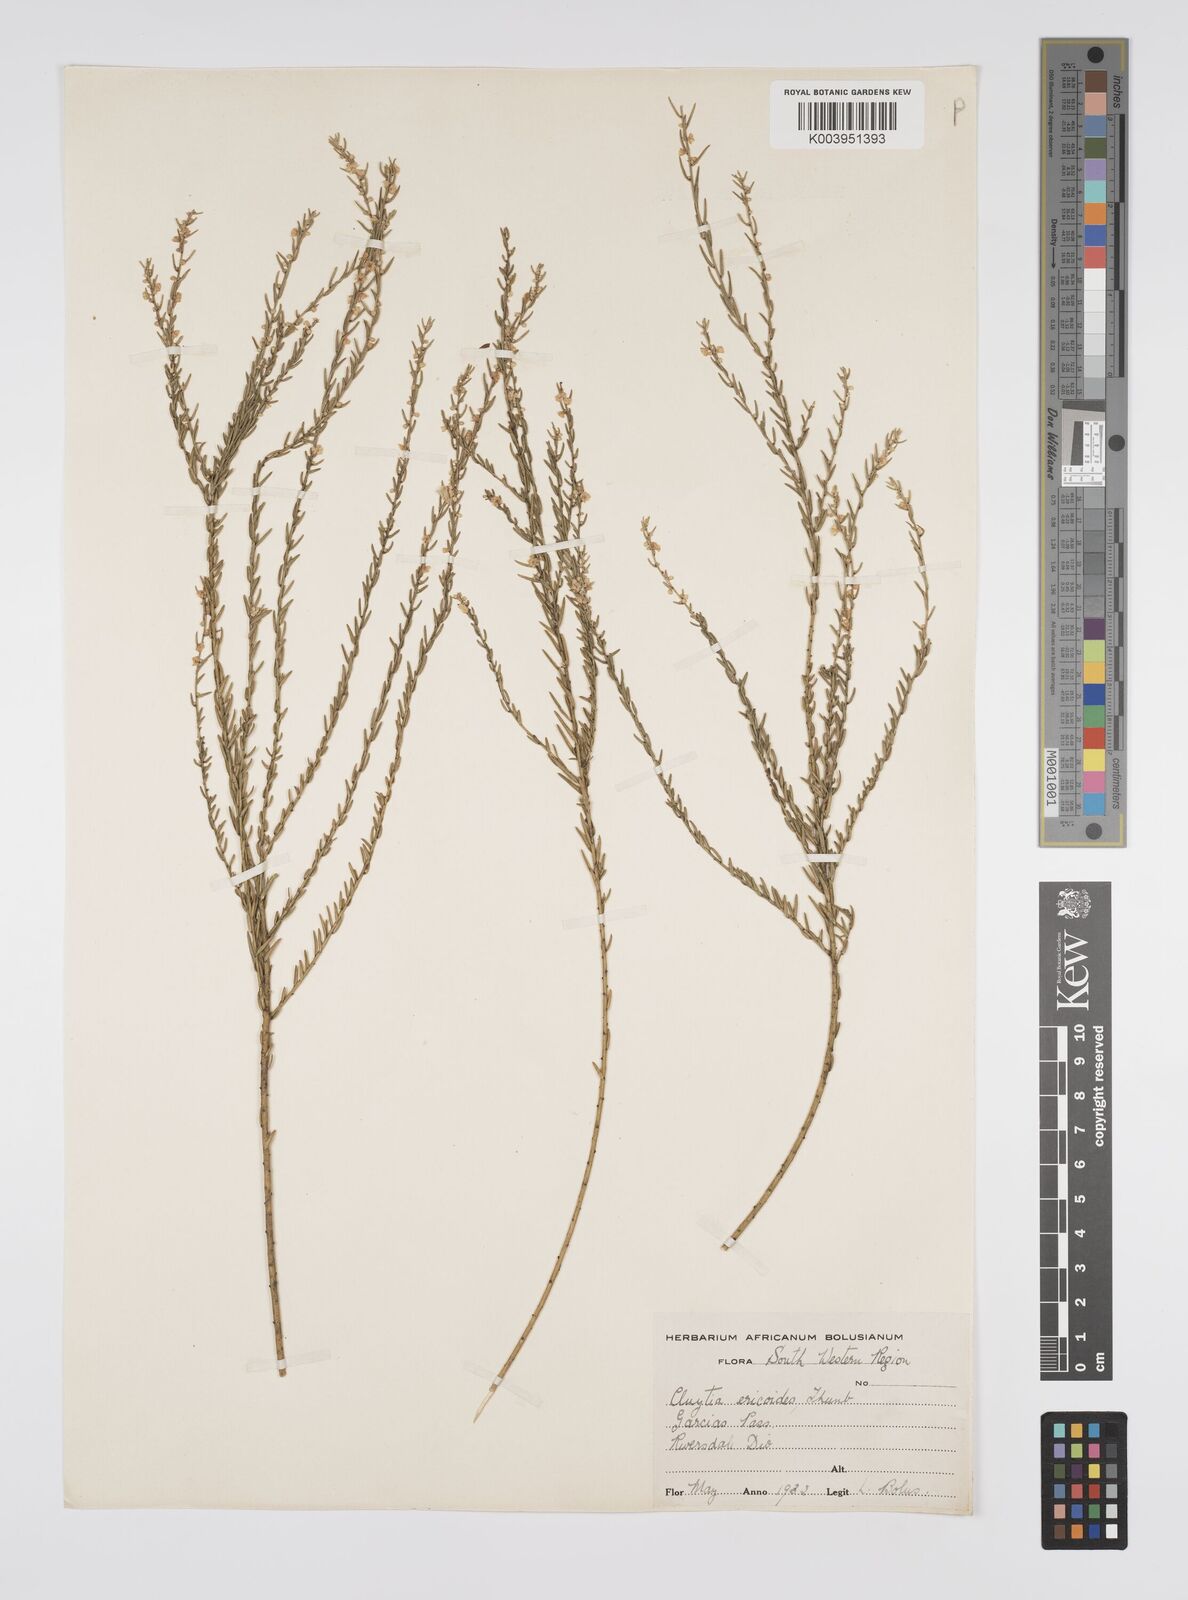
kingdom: Plantae
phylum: Tracheophyta
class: Magnoliopsida
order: Malpighiales
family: Peraceae
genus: Clutia
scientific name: Clutia
